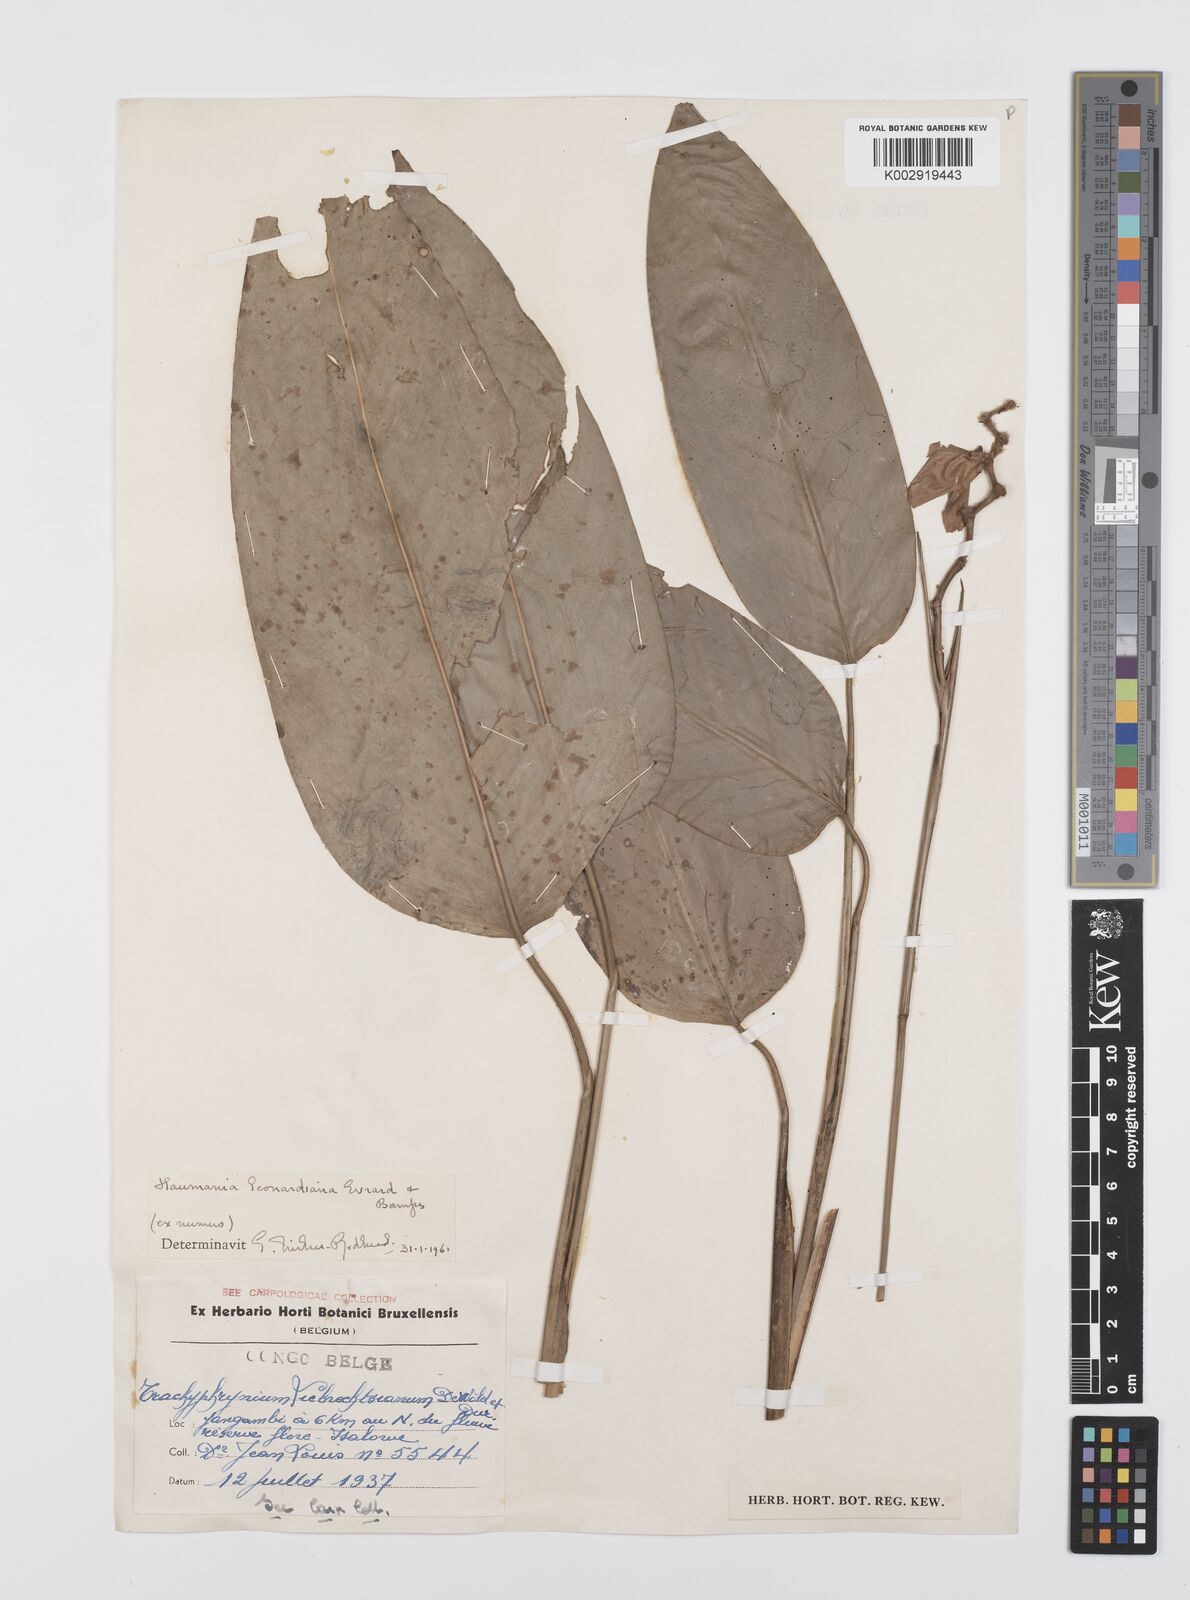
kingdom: Plantae
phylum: Tracheophyta
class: Liliopsida
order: Zingiberales
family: Marantaceae
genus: Haumania
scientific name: Haumania leonardiana
